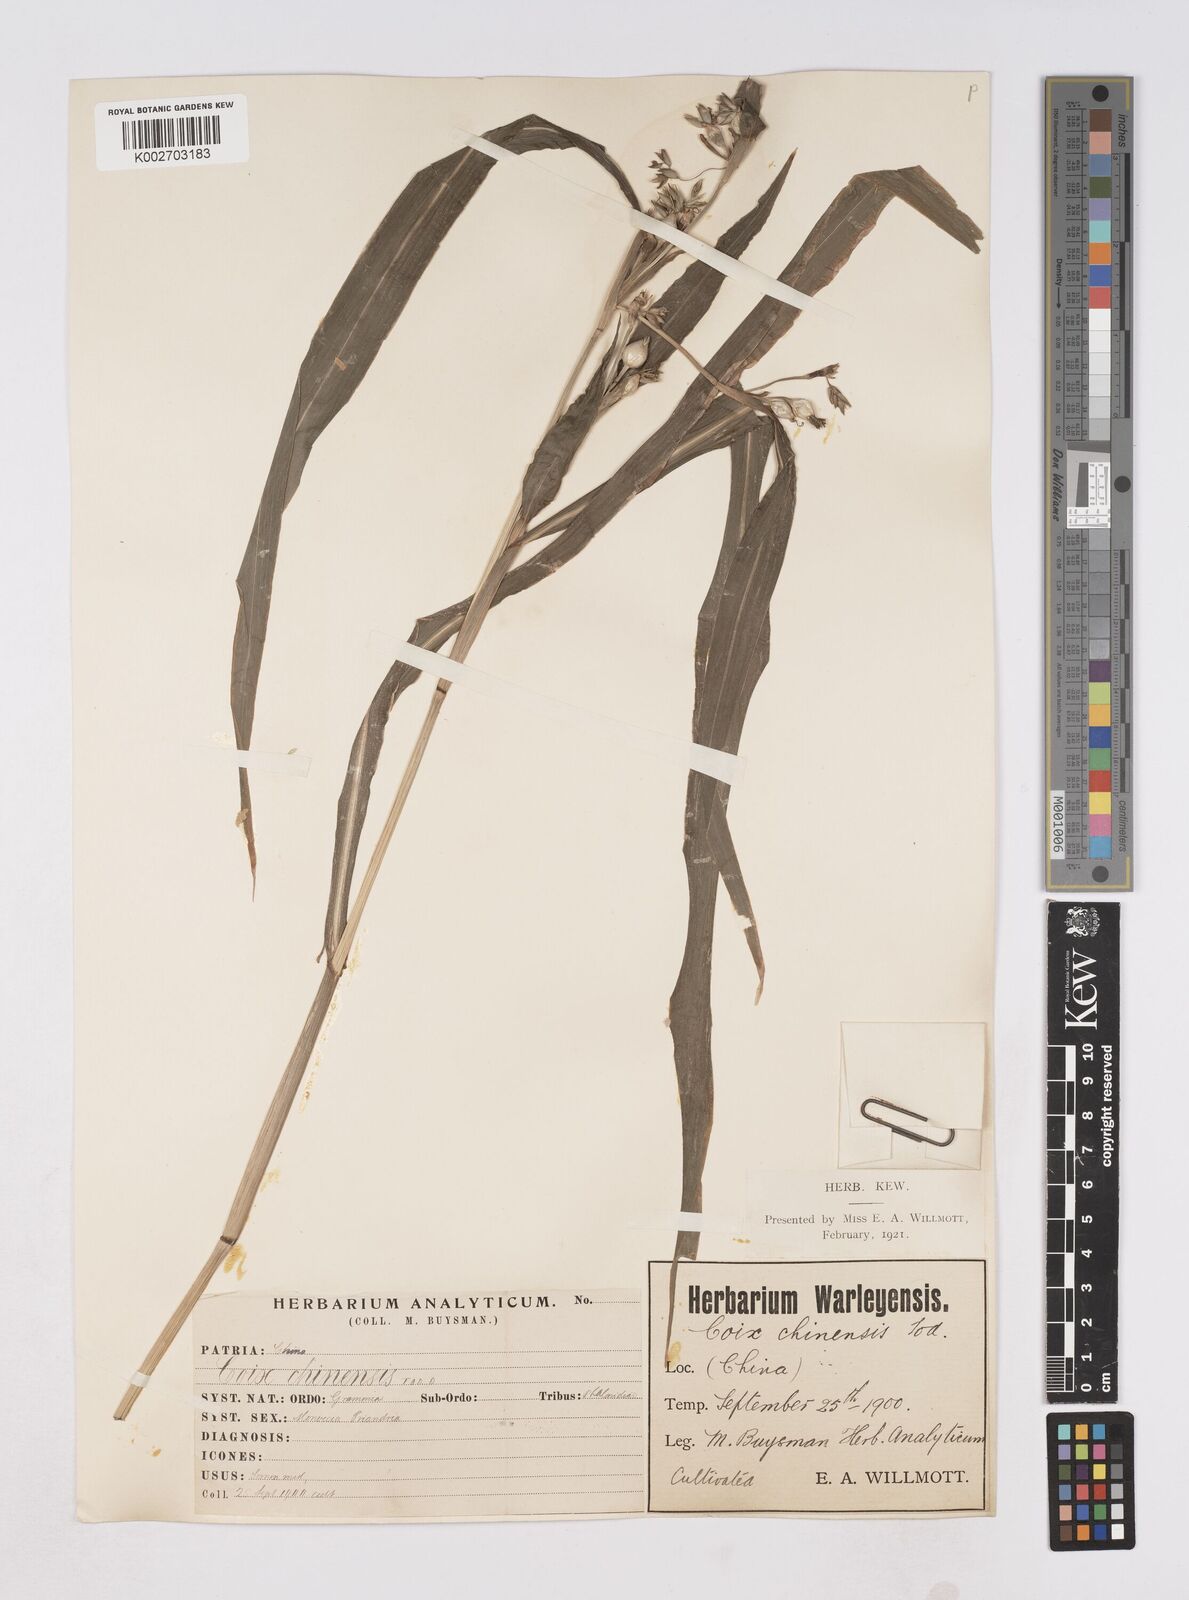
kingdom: Plantae
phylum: Tracheophyta
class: Liliopsida
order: Poales
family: Poaceae
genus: Coix
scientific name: Coix lacryma-jobi
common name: Job's tears
